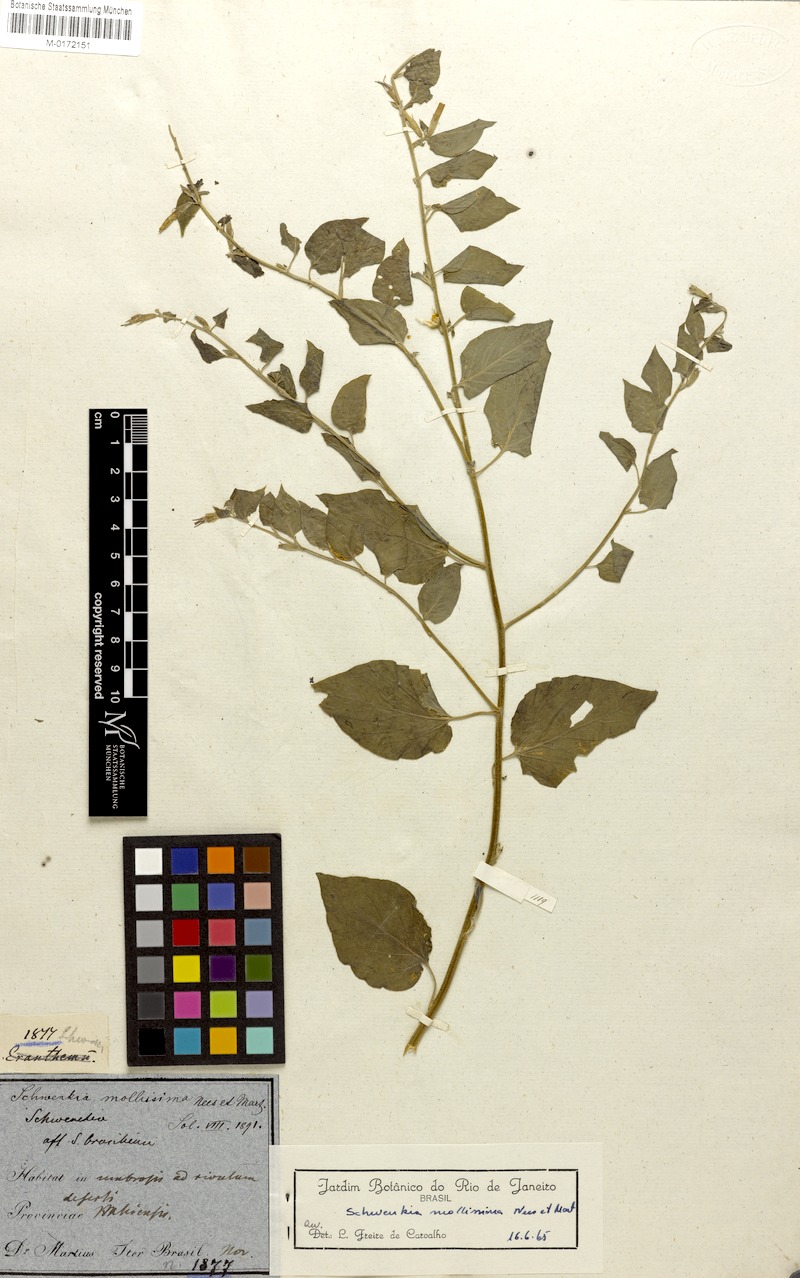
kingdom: Plantae
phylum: Tracheophyta
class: Magnoliopsida
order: Solanales
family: Solanaceae
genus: Schwenckia
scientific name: Schwenckia mollissima
